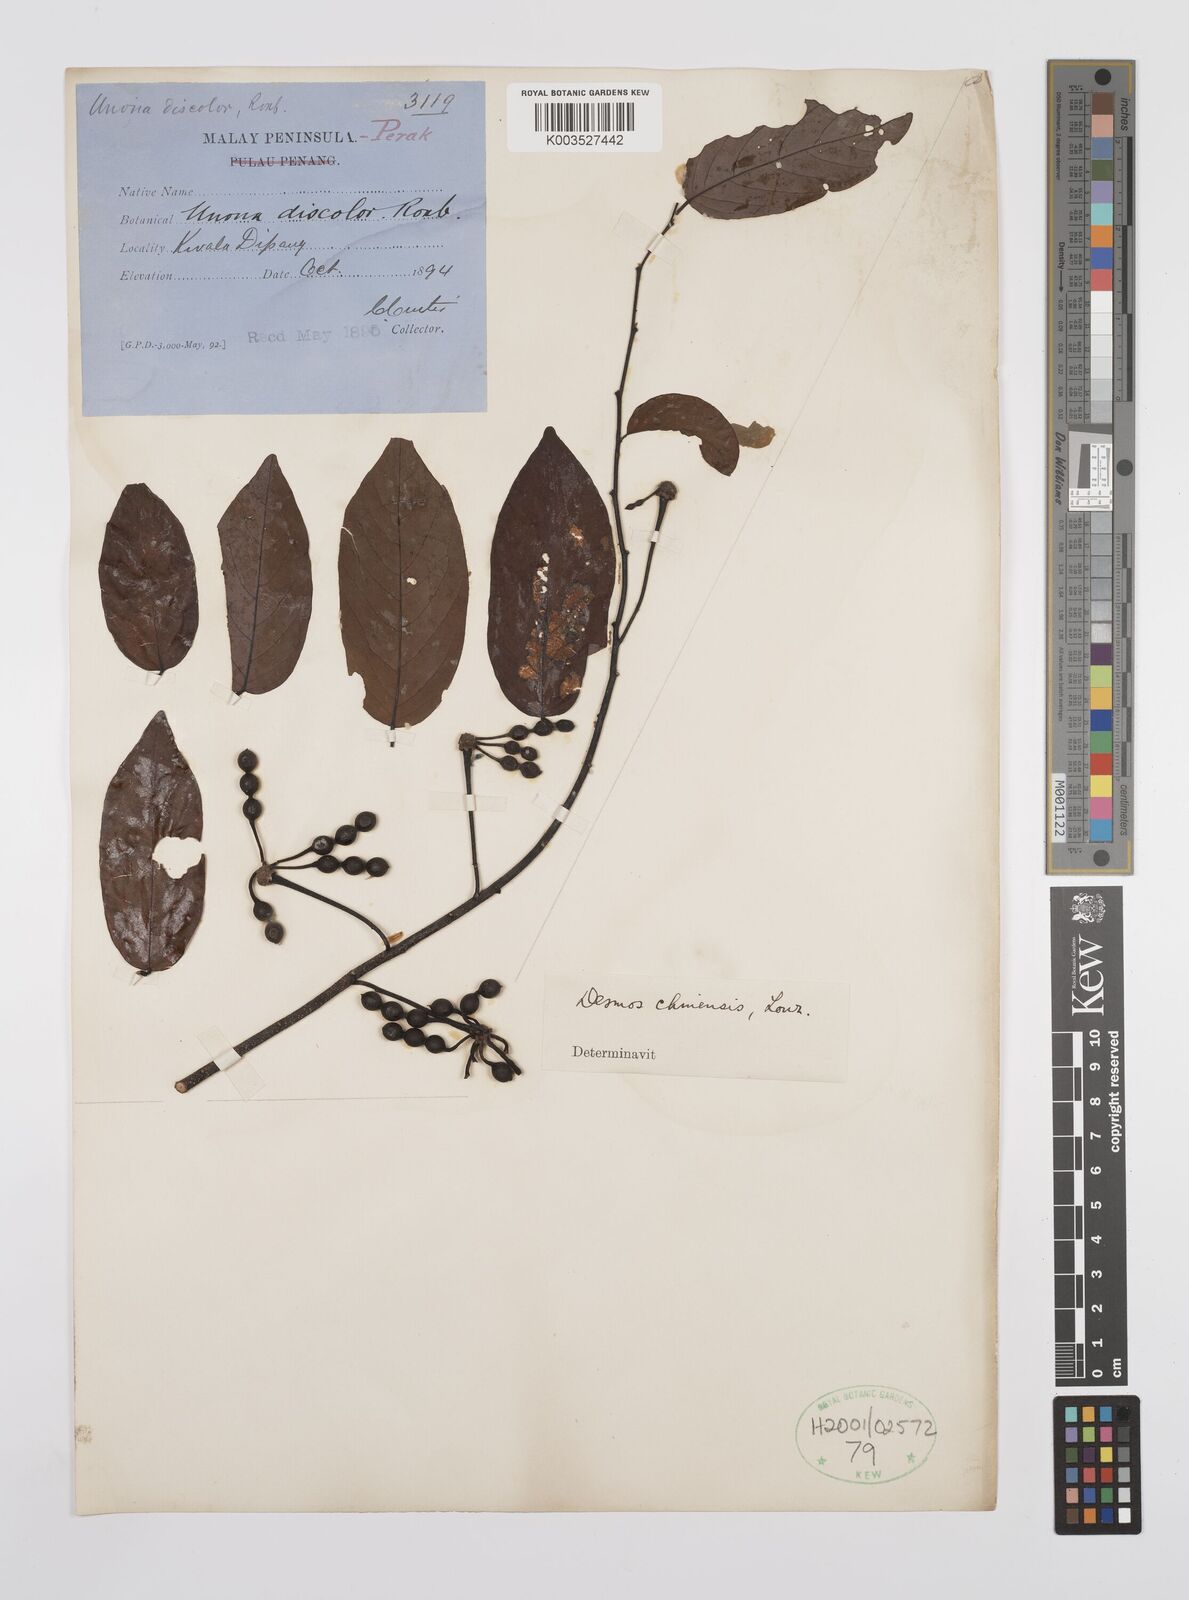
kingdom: Plantae
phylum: Tracheophyta
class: Magnoliopsida
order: Magnoliales
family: Annonaceae
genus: Desmos
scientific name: Desmos chinensis
